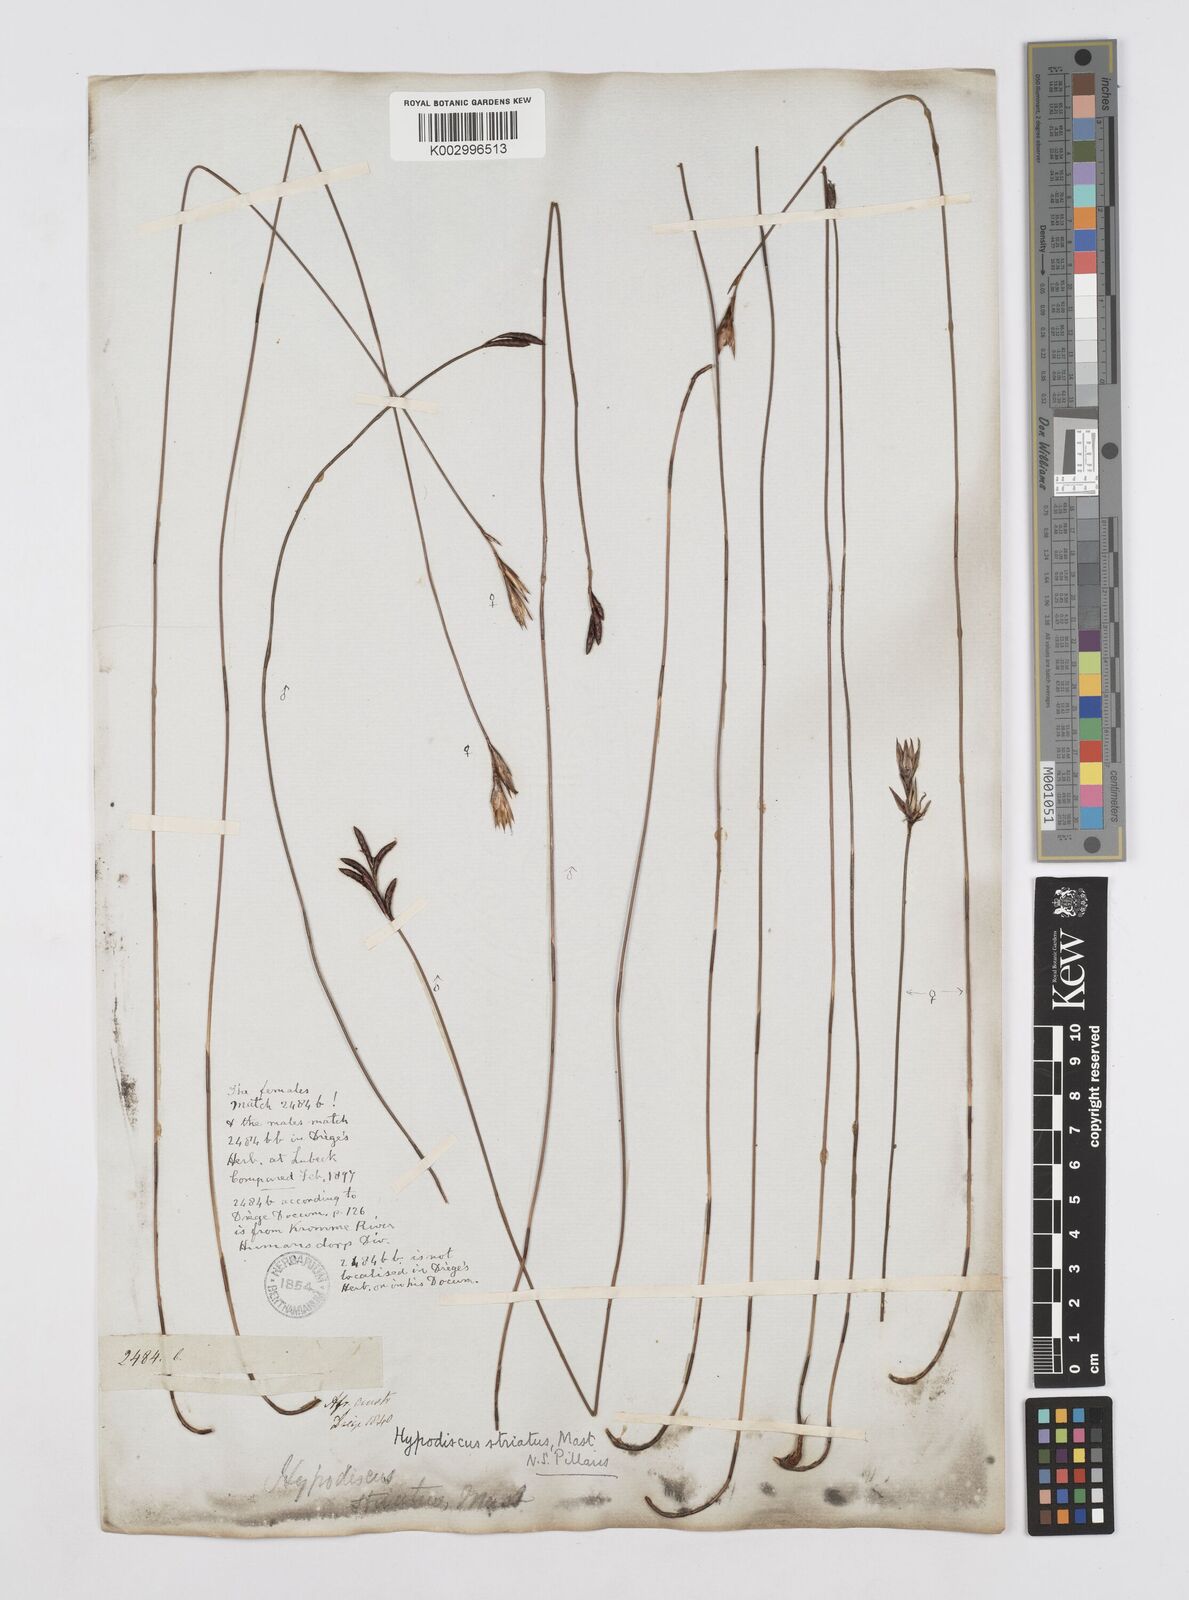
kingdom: Plantae
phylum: Tracheophyta
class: Liliopsida
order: Poales
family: Restionaceae
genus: Hypodiscus
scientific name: Hypodiscus striatus
